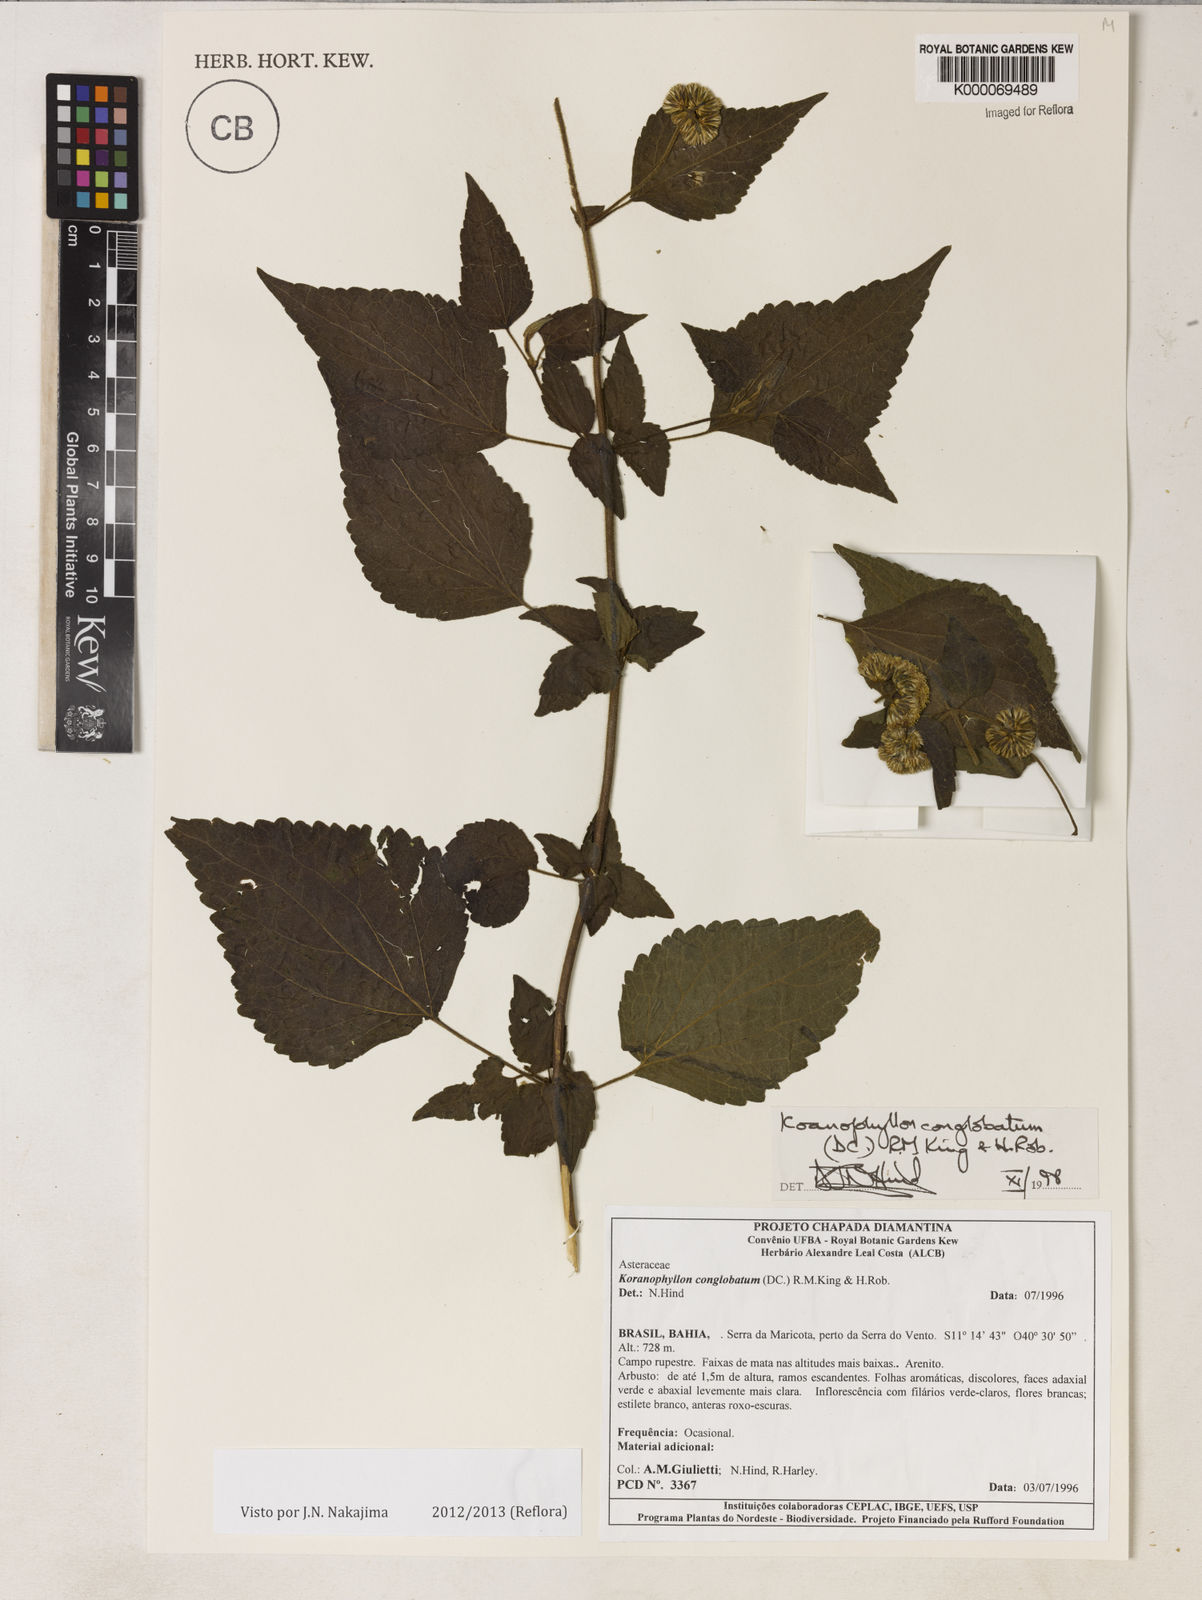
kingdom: Plantae
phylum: Tracheophyta
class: Magnoliopsida
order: Asterales
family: Asteraceae
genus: Koanophyllon
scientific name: Koanophyllon conglobatum
